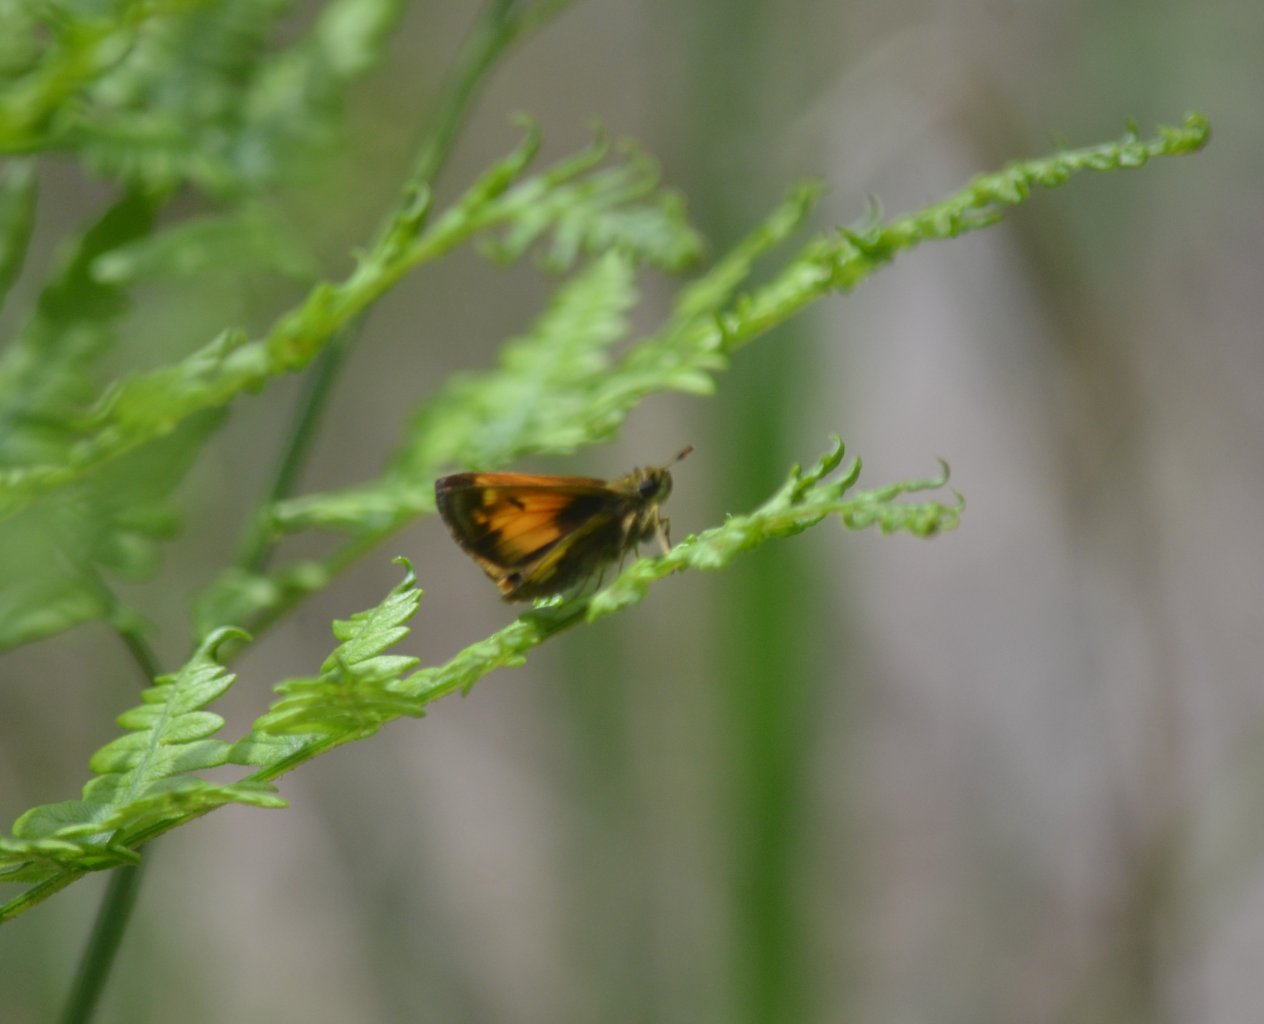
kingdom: Animalia
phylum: Arthropoda
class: Insecta
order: Lepidoptera
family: Hesperiidae
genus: Lon
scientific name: Lon hobomok
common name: Hobomok Skipper
